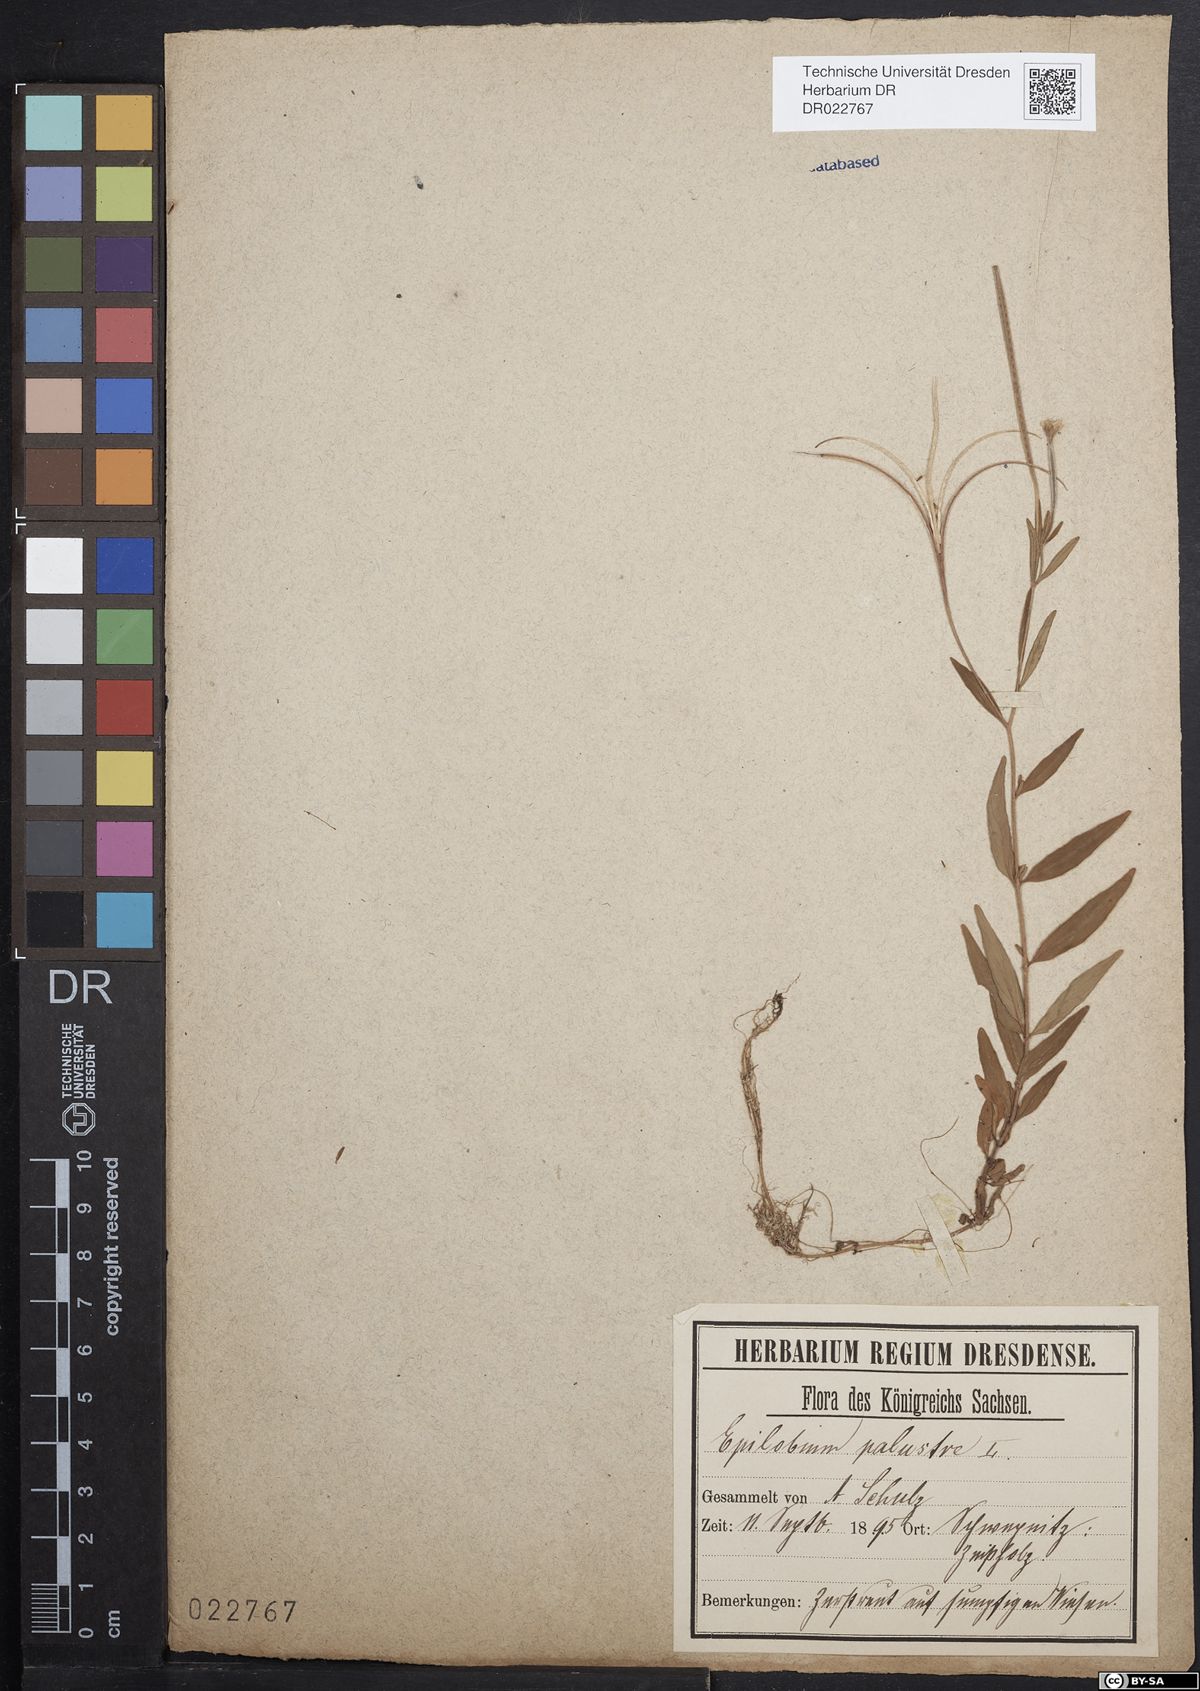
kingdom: Plantae
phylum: Tracheophyta
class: Magnoliopsida
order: Myrtales
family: Onagraceae
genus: Epilobium
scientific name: Epilobium palustre
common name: Marsh willowherb
